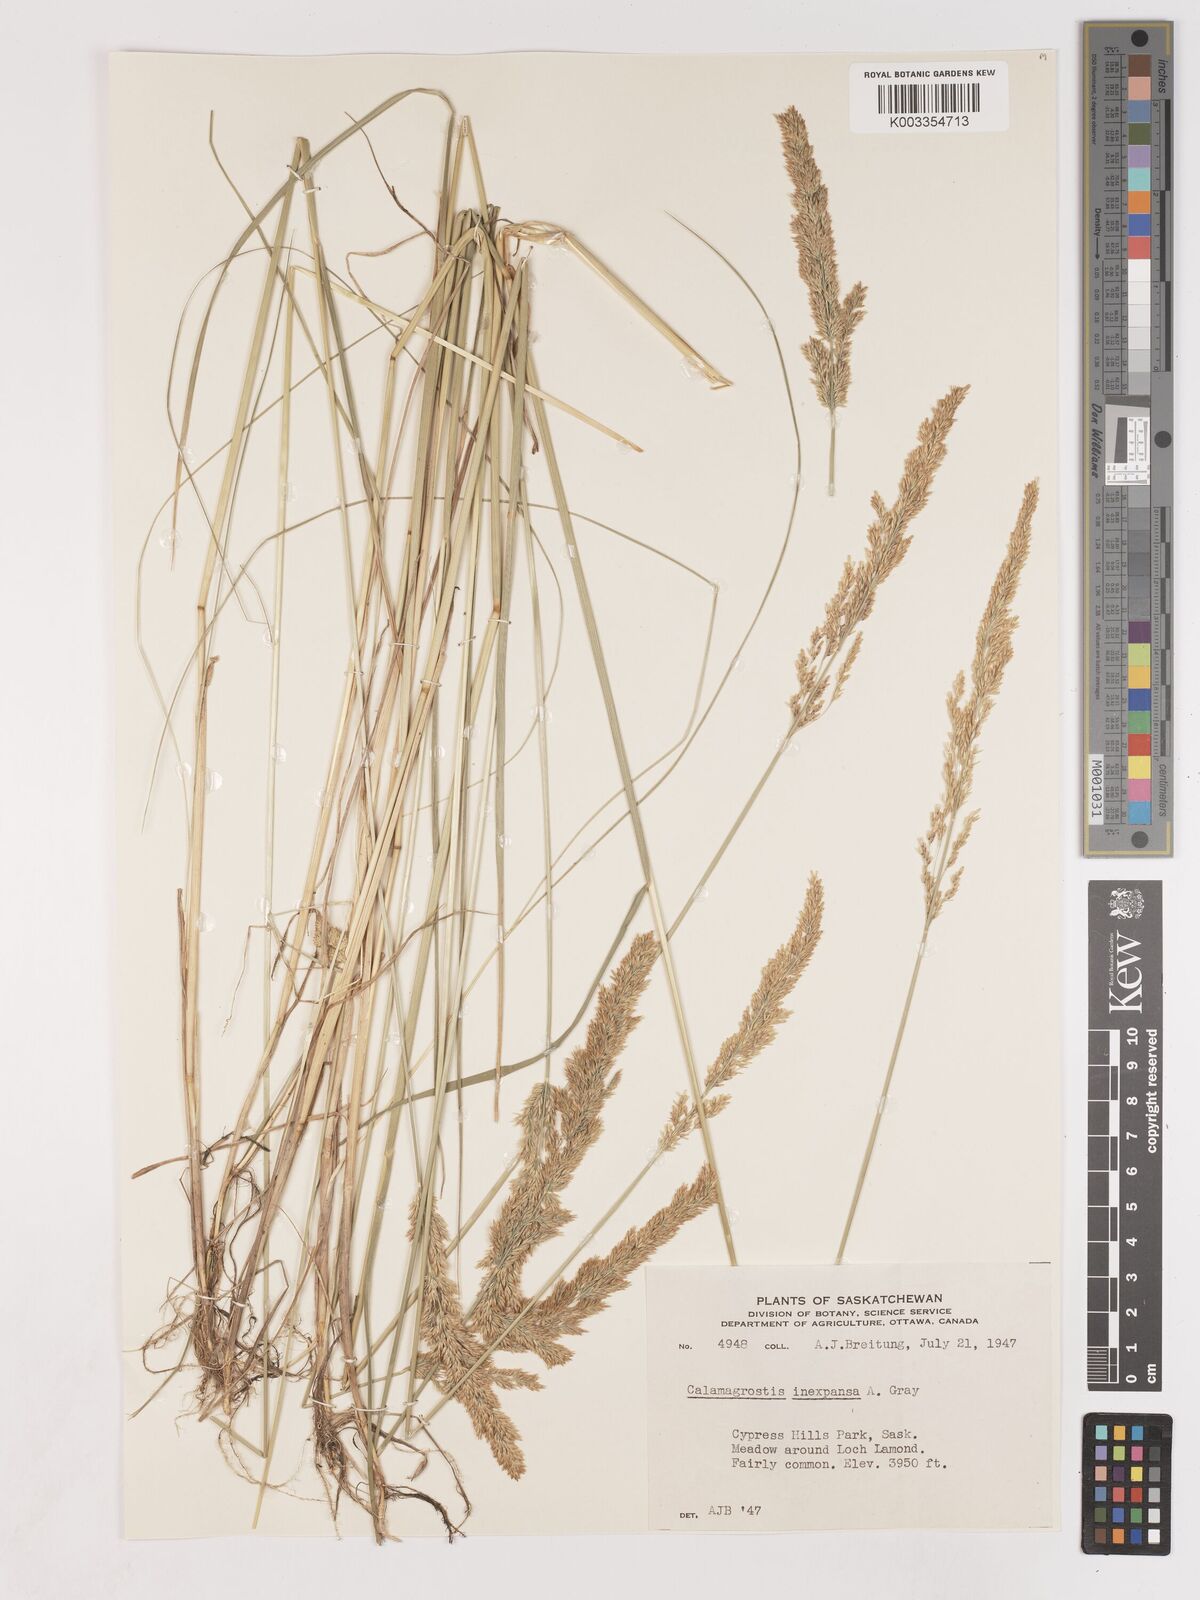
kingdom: Plantae
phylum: Tracheophyta
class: Liliopsida
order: Poales
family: Poaceae
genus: Cinnagrostis
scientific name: Cinnagrostis recta
